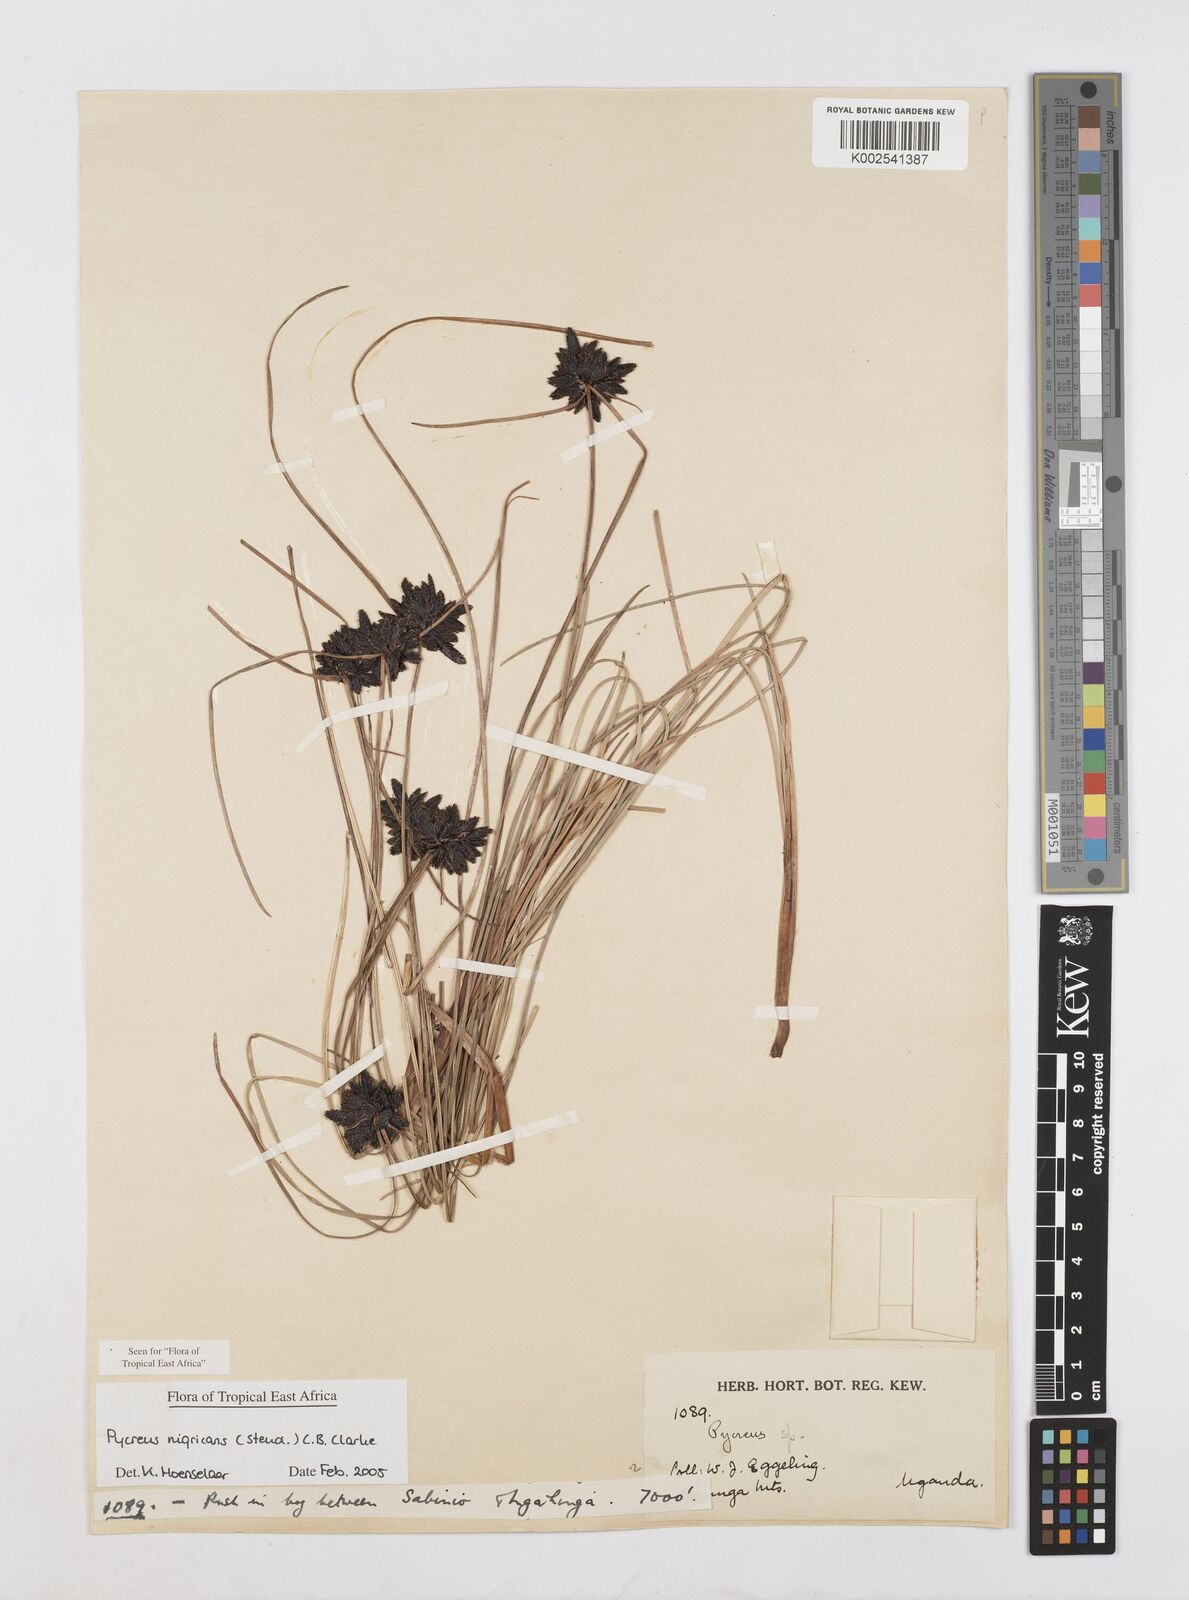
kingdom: Plantae
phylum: Tracheophyta
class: Liliopsida
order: Poales
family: Cyperaceae
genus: Cyperus
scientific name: Cyperus nigricans
